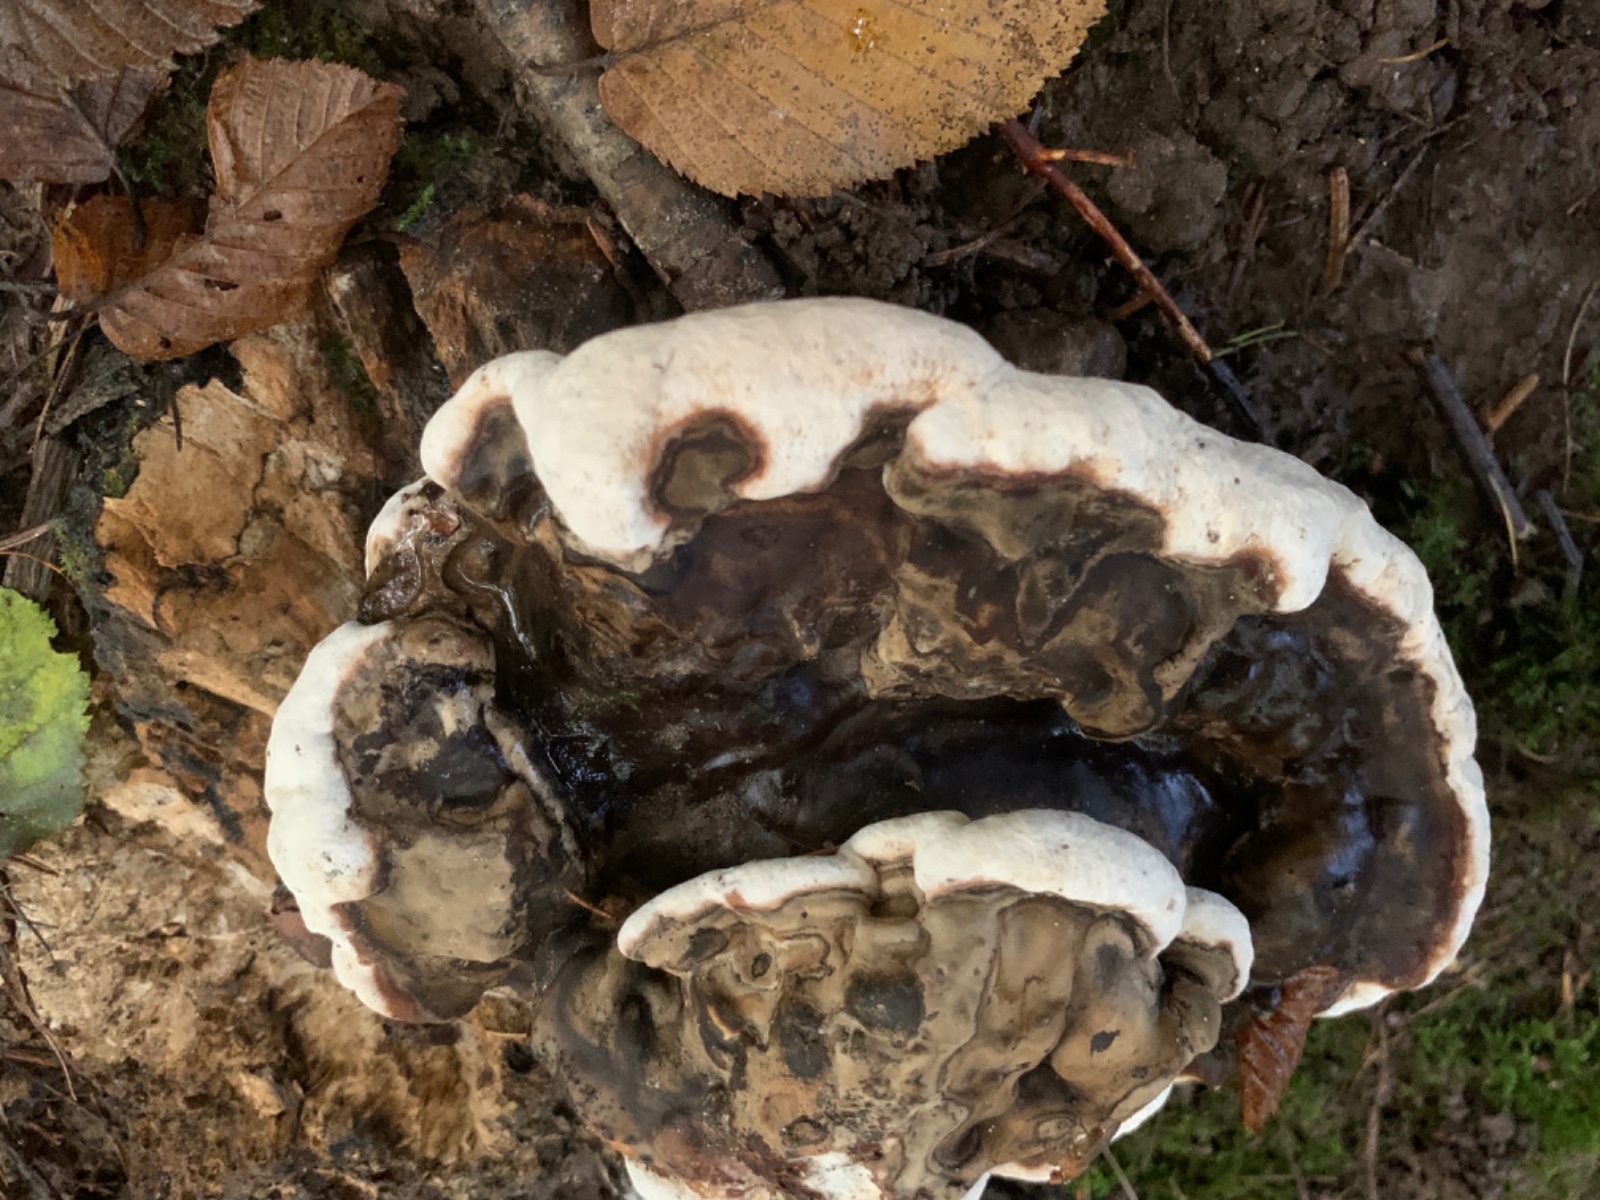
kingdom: Fungi
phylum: Basidiomycota
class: Agaricomycetes
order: Russulales
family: Bondarzewiaceae
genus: Heterobasidion
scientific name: Heterobasidion annosum
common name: almindelig rodfordærver
